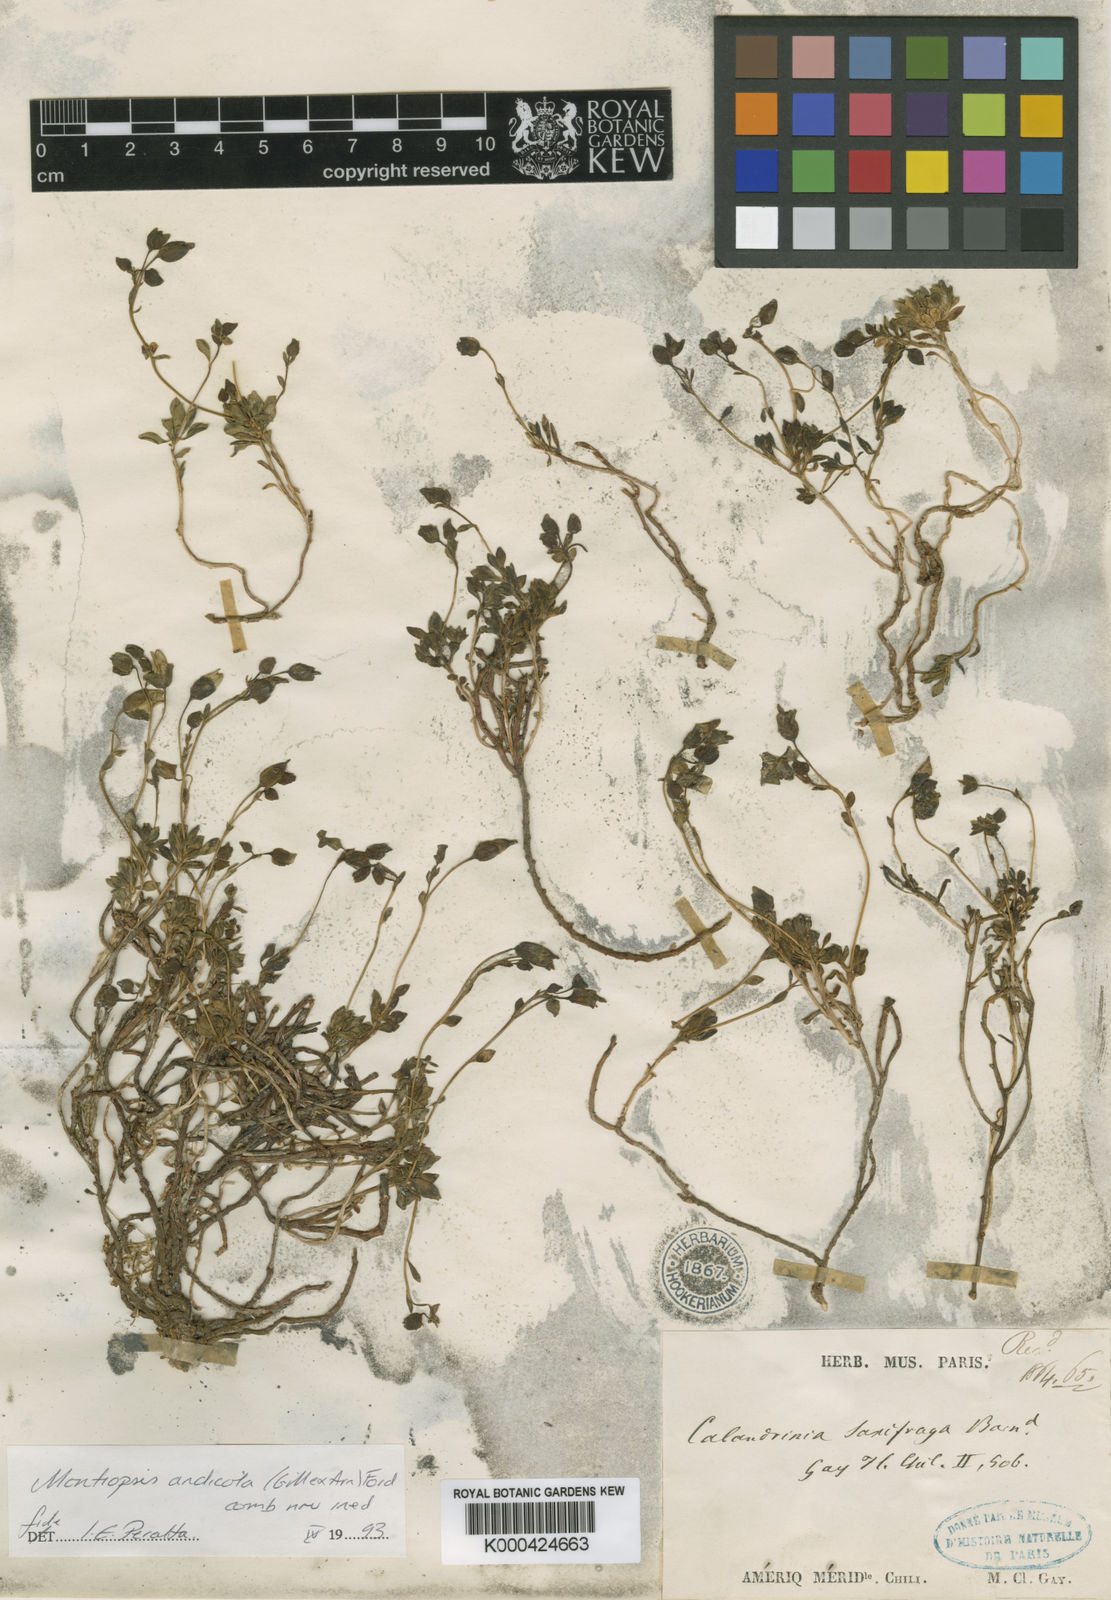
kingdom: Plantae
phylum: Tracheophyta
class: Magnoliopsida
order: Caryophyllales
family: Montiaceae
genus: Montiopsis
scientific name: Montiopsis andicola
